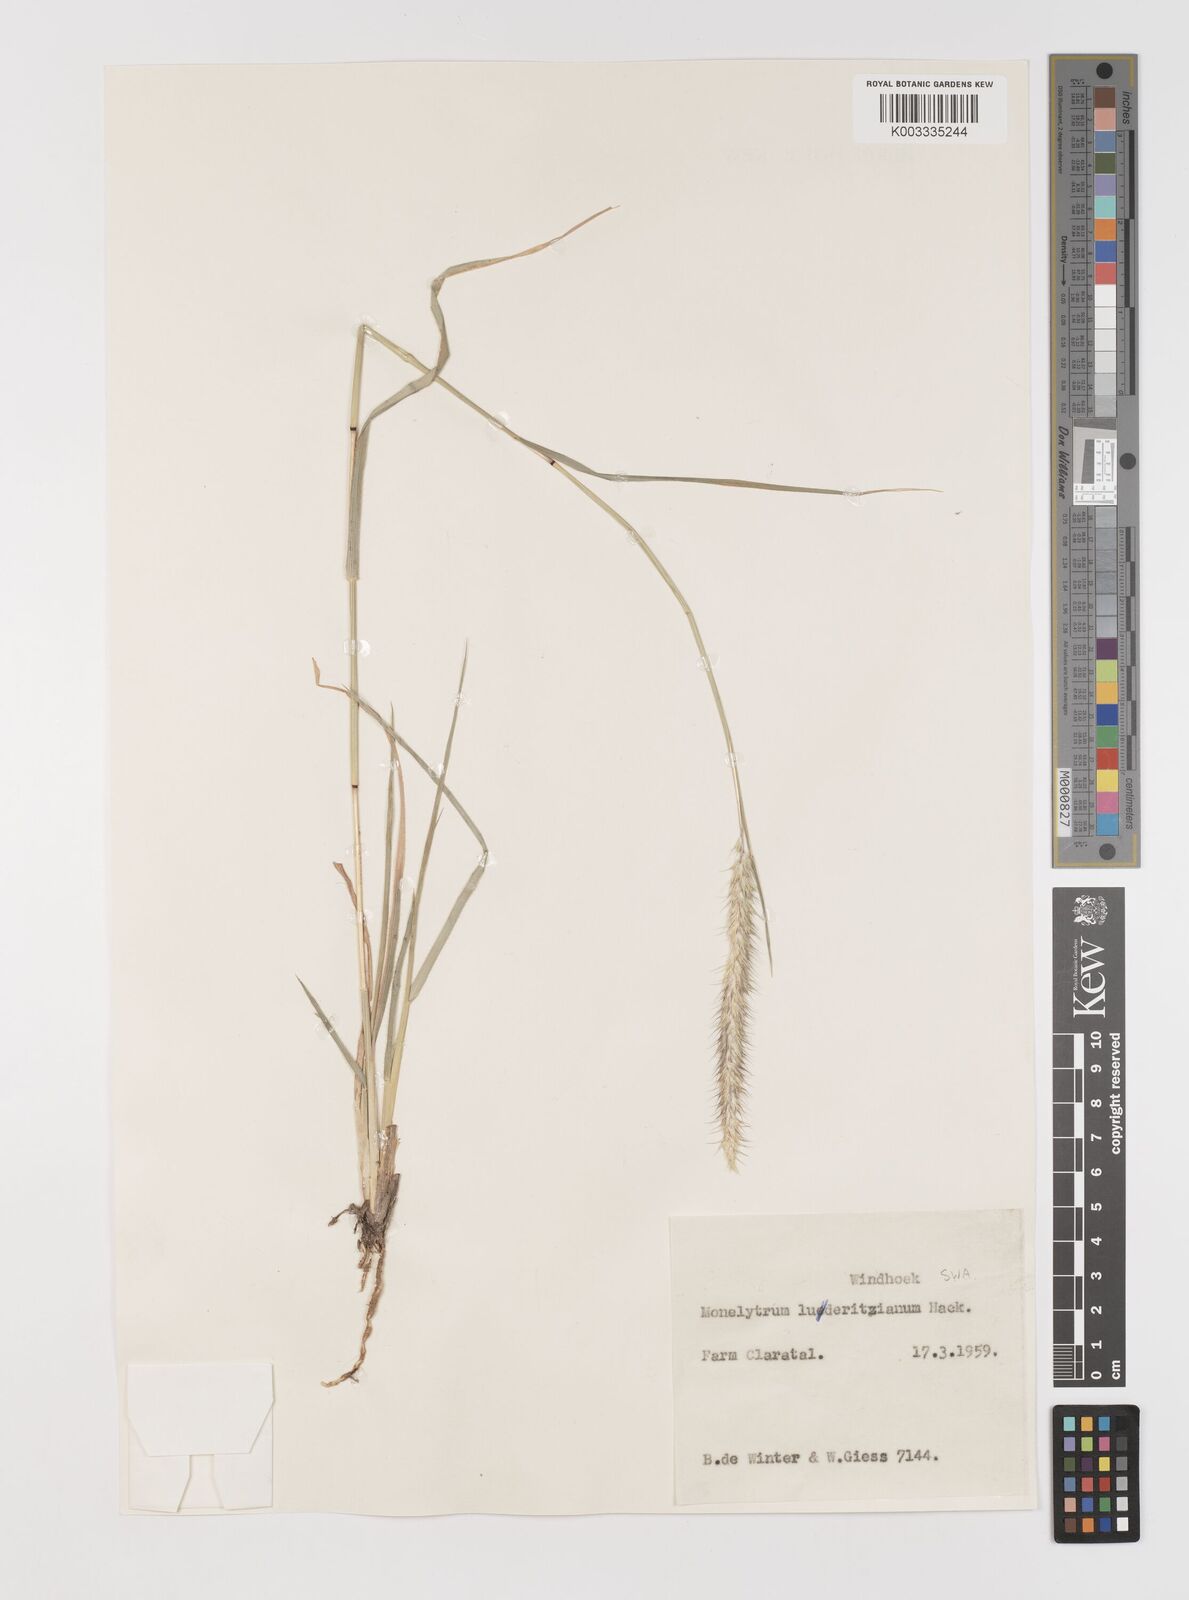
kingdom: Plantae
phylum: Tracheophyta
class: Liliopsida
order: Poales
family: Poaceae
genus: Monelytrum
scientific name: Monelytrum luederitzianum
